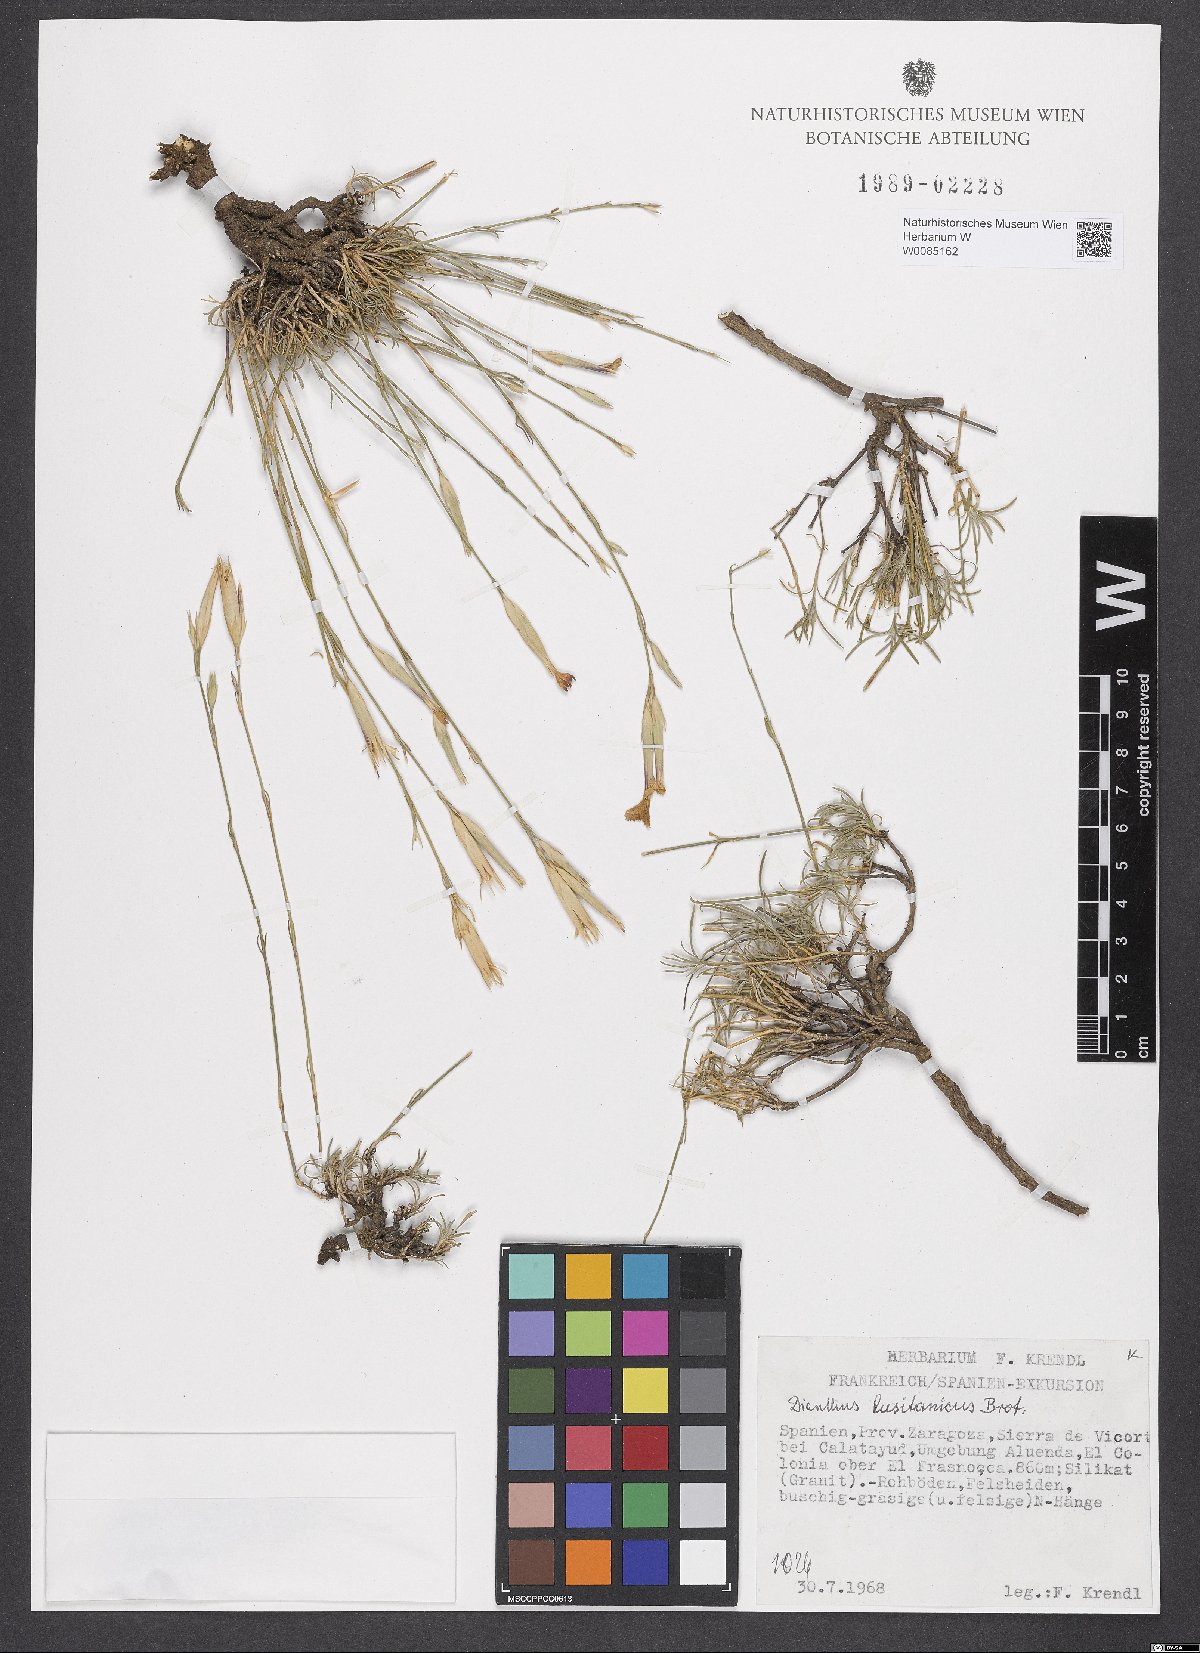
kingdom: Plantae
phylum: Tracheophyta
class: Magnoliopsida
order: Caryophyllales
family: Caryophyllaceae
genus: Dianthus
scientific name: Dianthus lusitanus
